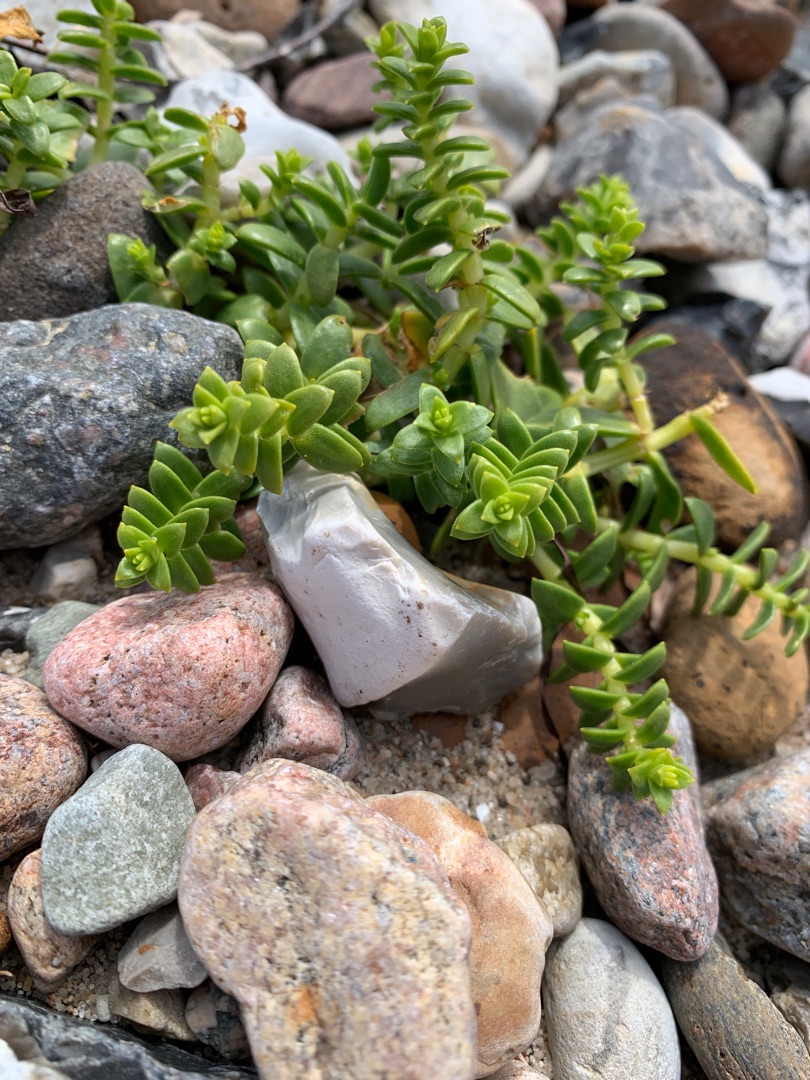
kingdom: Plantae
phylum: Tracheophyta
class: Magnoliopsida
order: Caryophyllales
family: Caryophyllaceae
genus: Honckenya
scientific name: Honckenya peploides
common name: Strandarve
